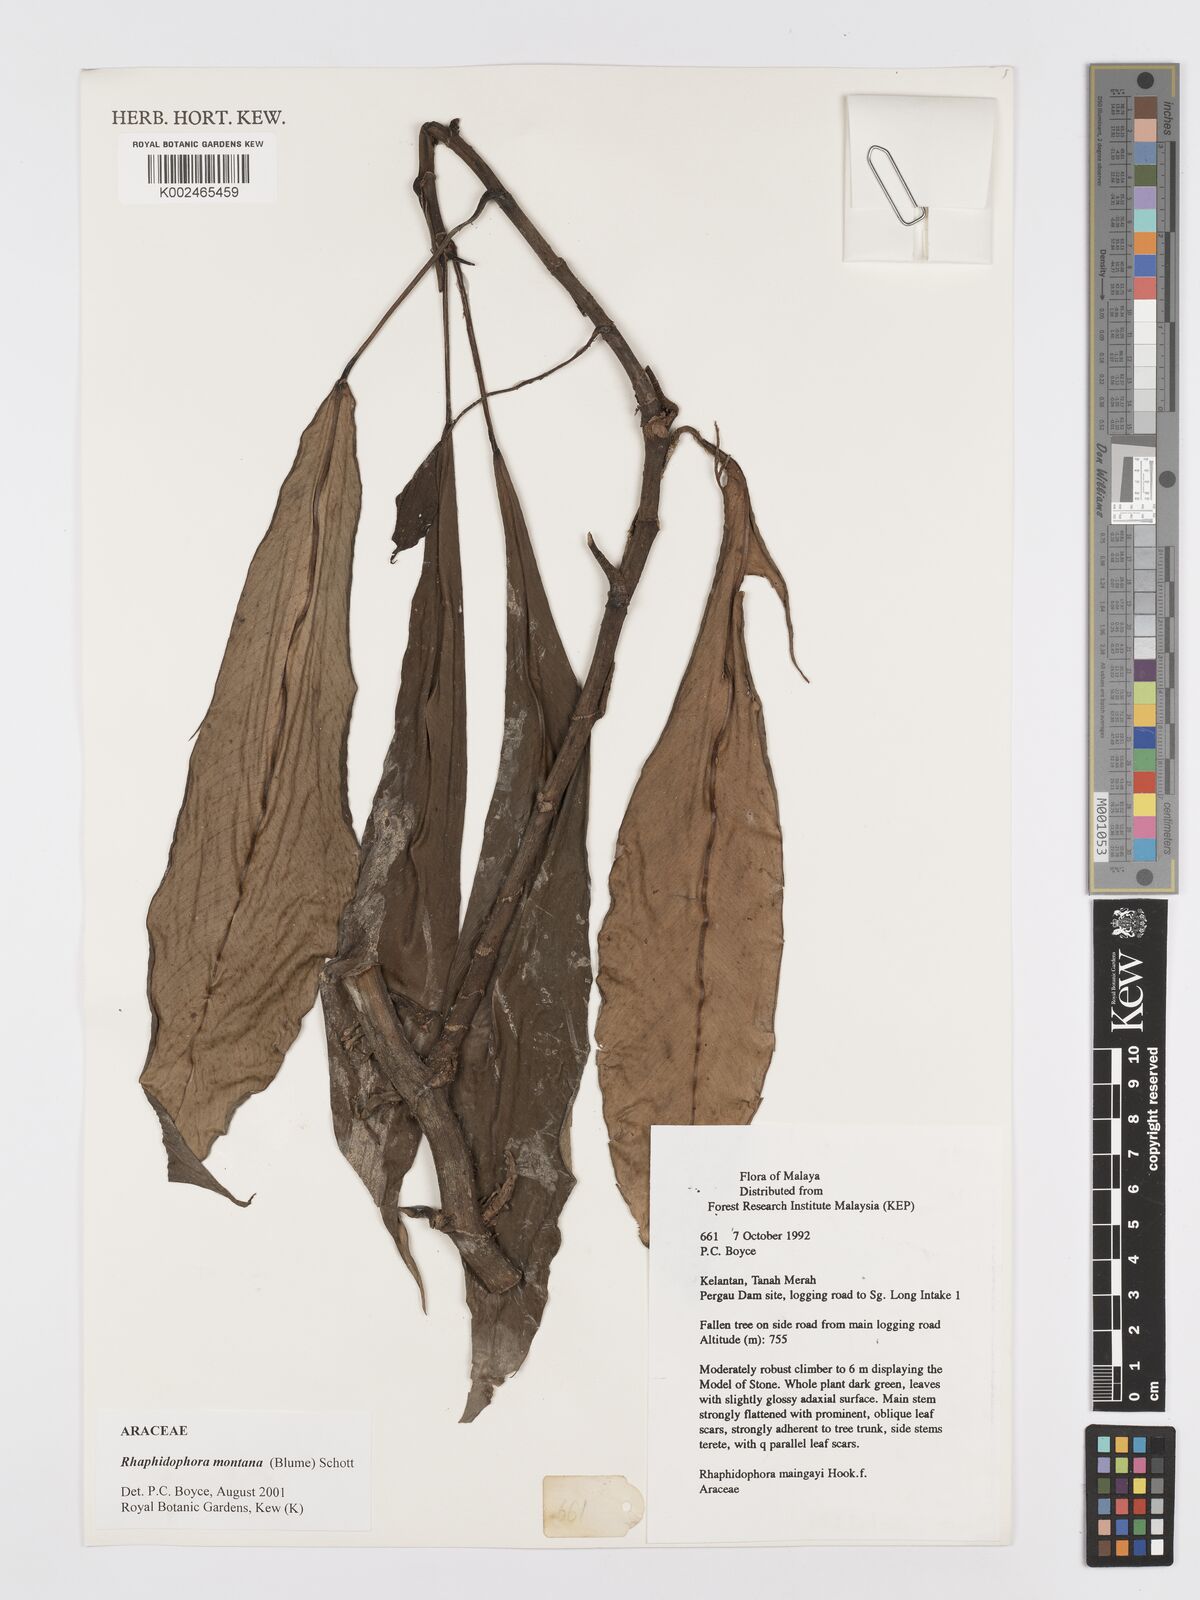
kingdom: Plantae
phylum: Tracheophyta
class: Liliopsida
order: Alismatales
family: Araceae
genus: Rhaphidophora
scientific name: Rhaphidophora montana
